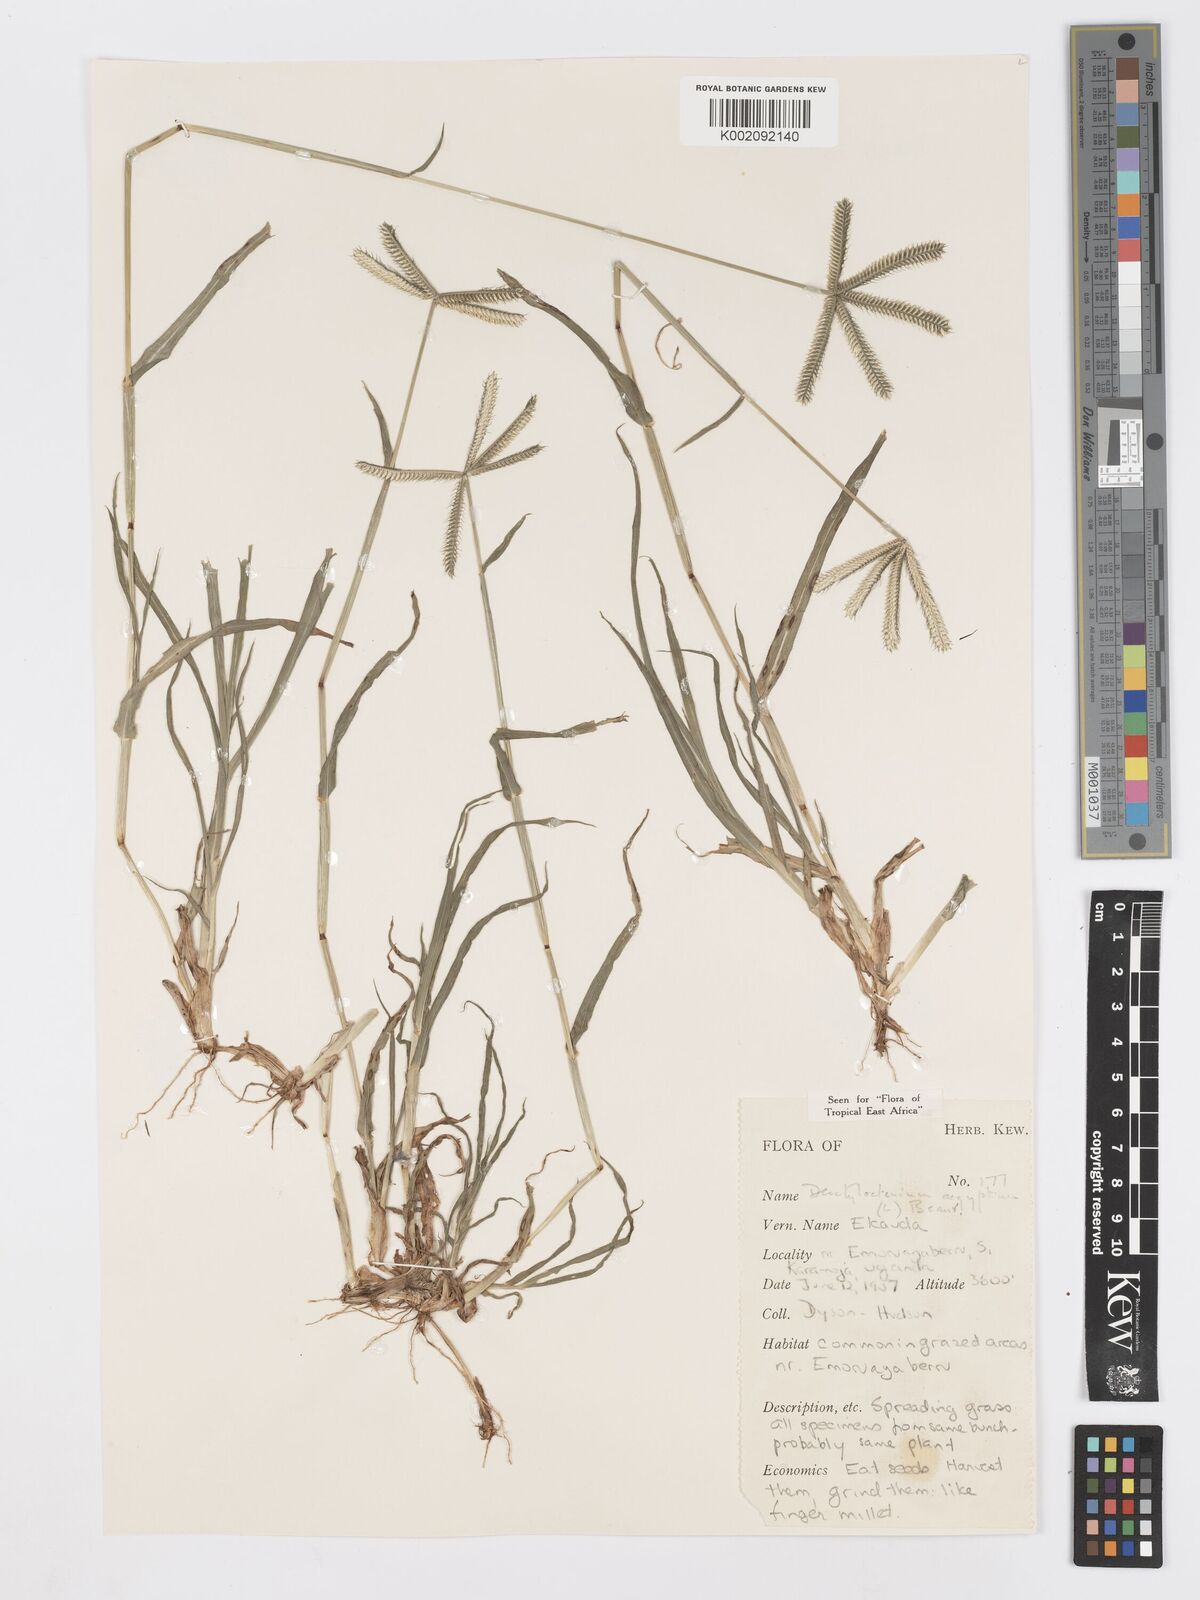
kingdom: Plantae
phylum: Tracheophyta
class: Liliopsida
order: Poales
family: Poaceae
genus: Dactyloctenium
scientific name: Dactyloctenium aegyptium
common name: Egyptian grass
